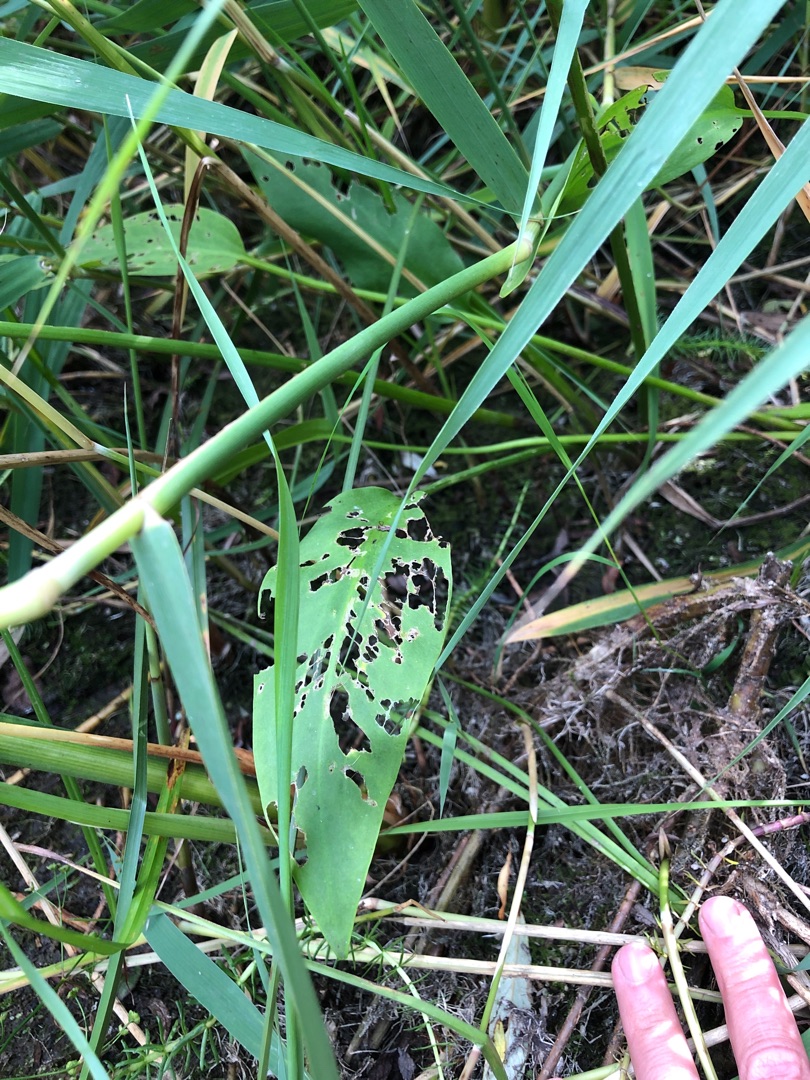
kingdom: Plantae
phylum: Tracheophyta
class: Liliopsida
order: Alismatales
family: Alismataceae
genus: Alisma
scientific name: Alisma plantago-aquatica
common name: Vejbred-skeblad
